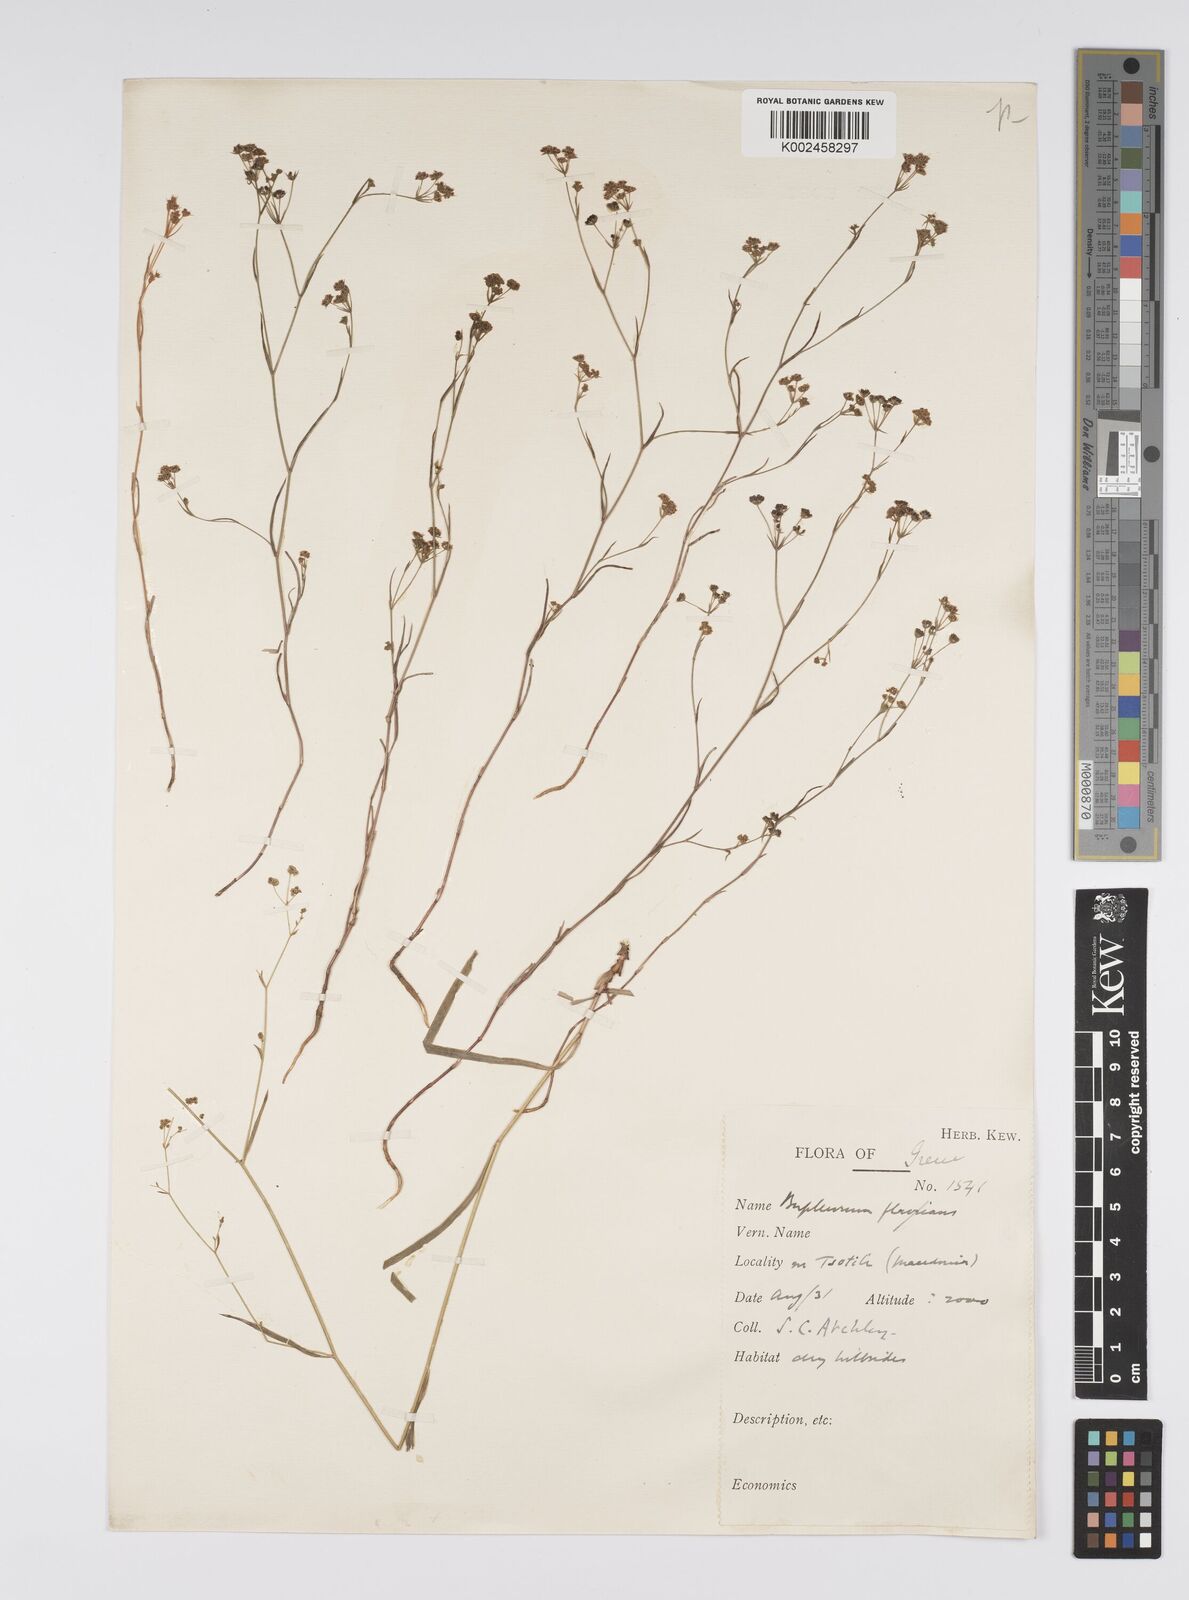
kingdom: Plantae
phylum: Tracheophyta
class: Magnoliopsida
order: Apiales
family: Apiaceae
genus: Bupleurum
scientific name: Bupleurum commutatum
